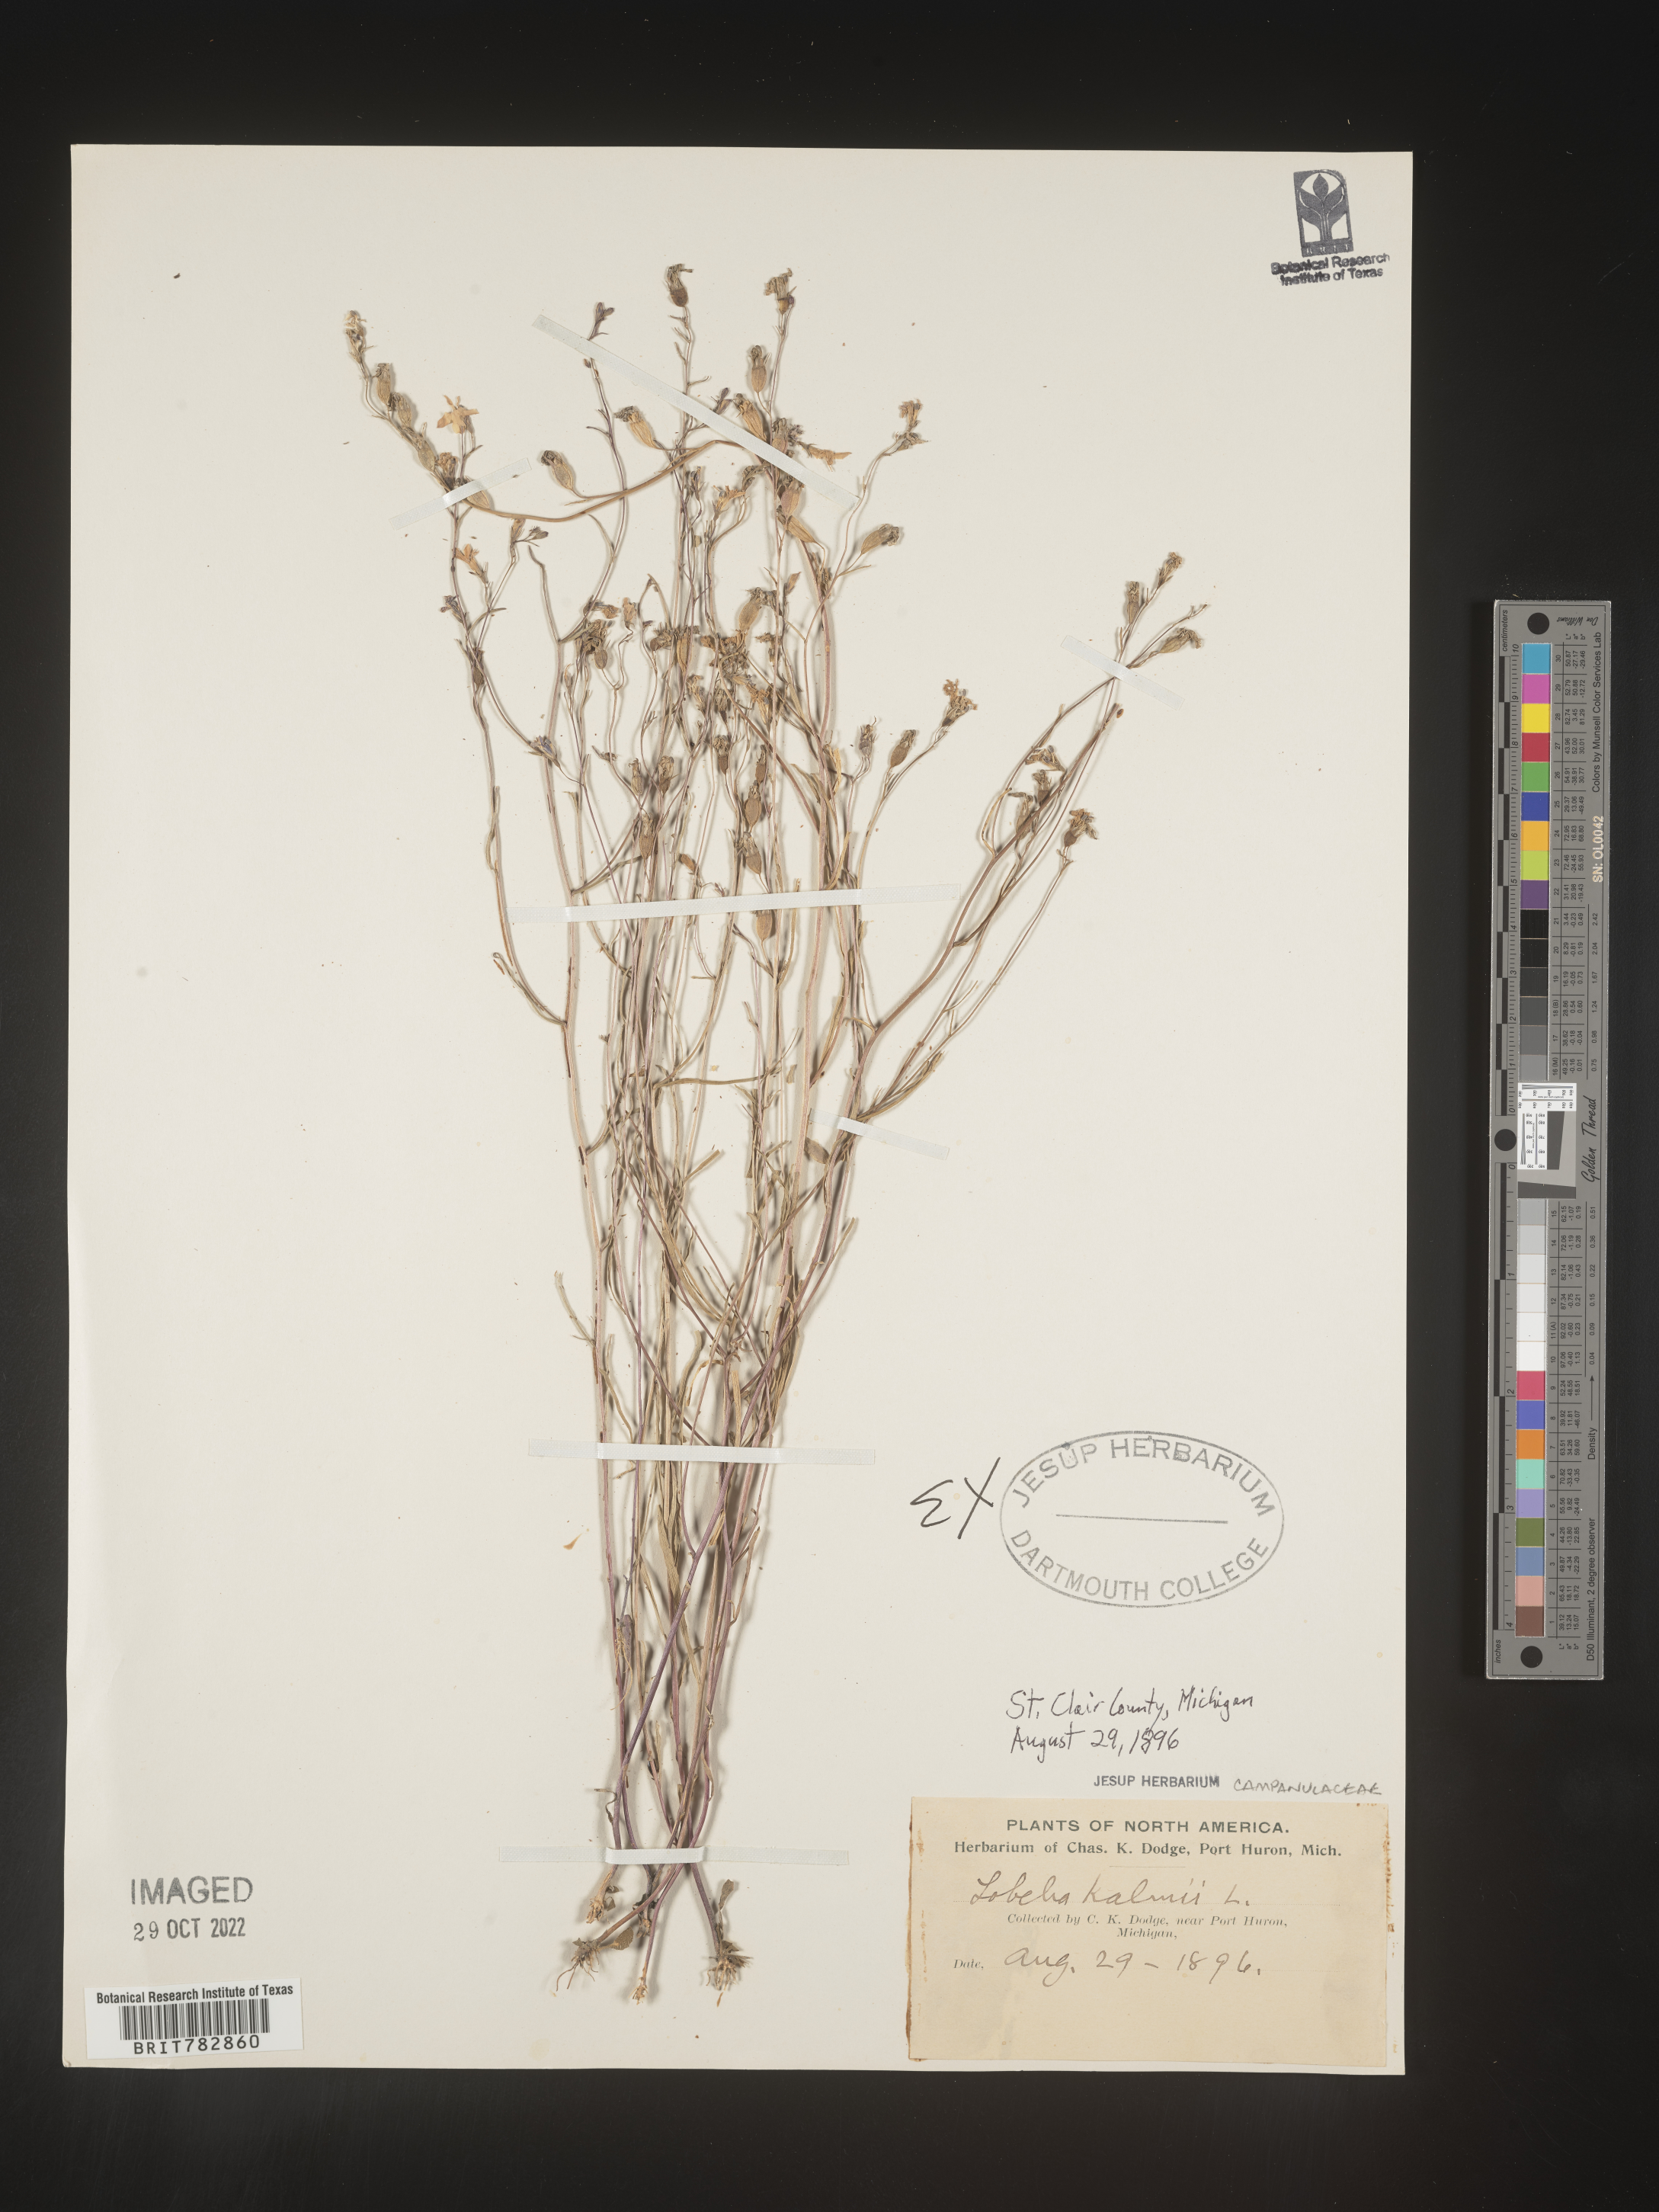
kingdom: Plantae
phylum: Tracheophyta
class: Magnoliopsida
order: Asterales
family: Campanulaceae
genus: Lobelia
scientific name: Lobelia
